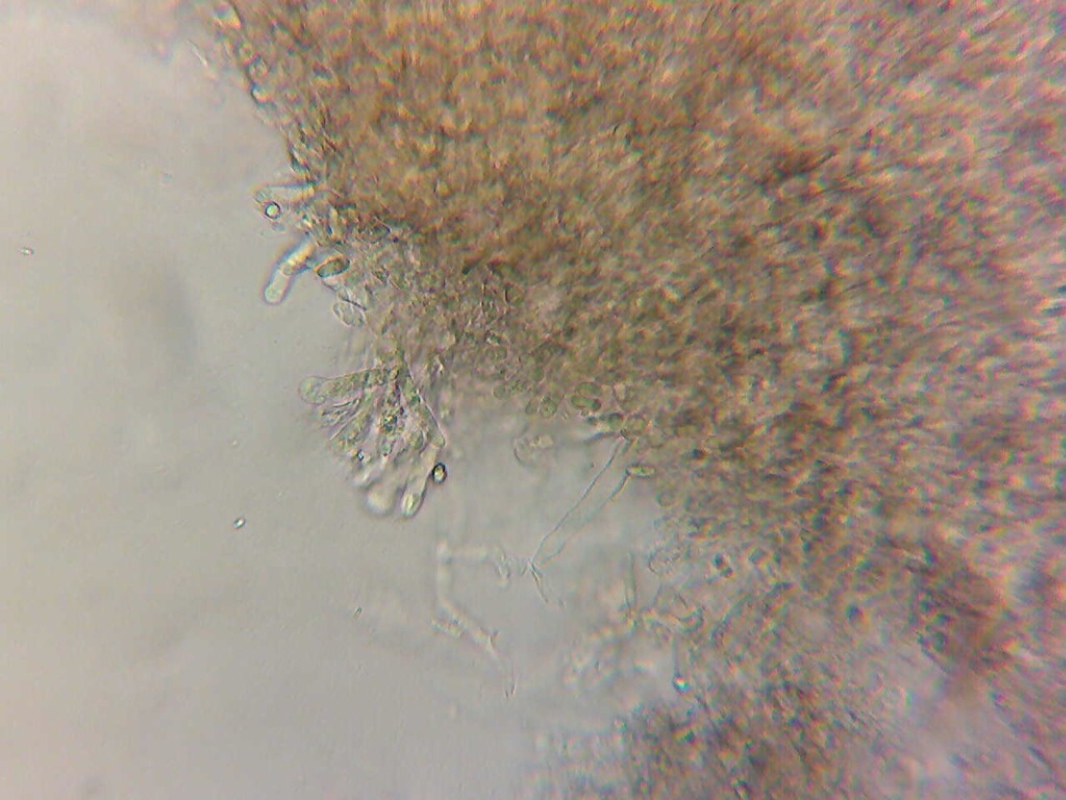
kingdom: Fungi
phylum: Basidiomycota
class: Agaricomycetes
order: Polyporales
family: Hyphodermataceae
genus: Hyphoderma
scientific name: Hyphoderma medioburiense
